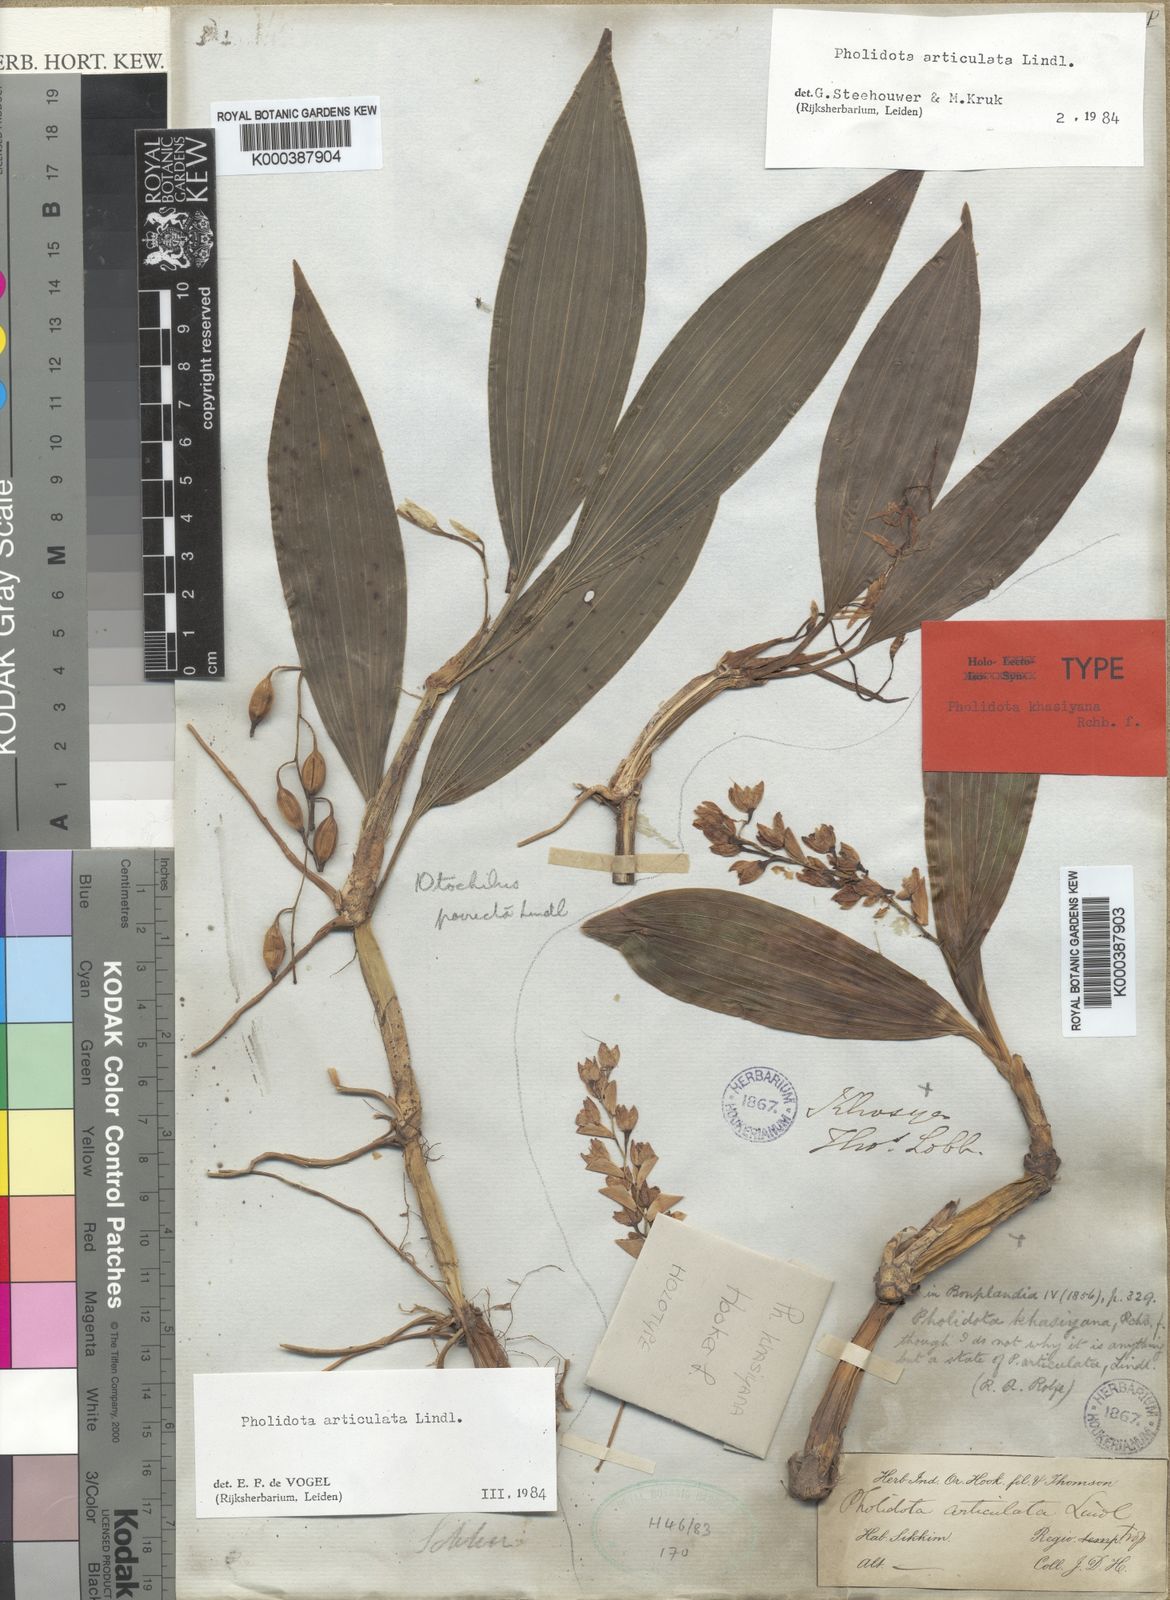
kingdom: Plantae
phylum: Tracheophyta
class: Liliopsida
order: Asparagales
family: Orchidaceae
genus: Coelogyne
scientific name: Coelogyne articulata
